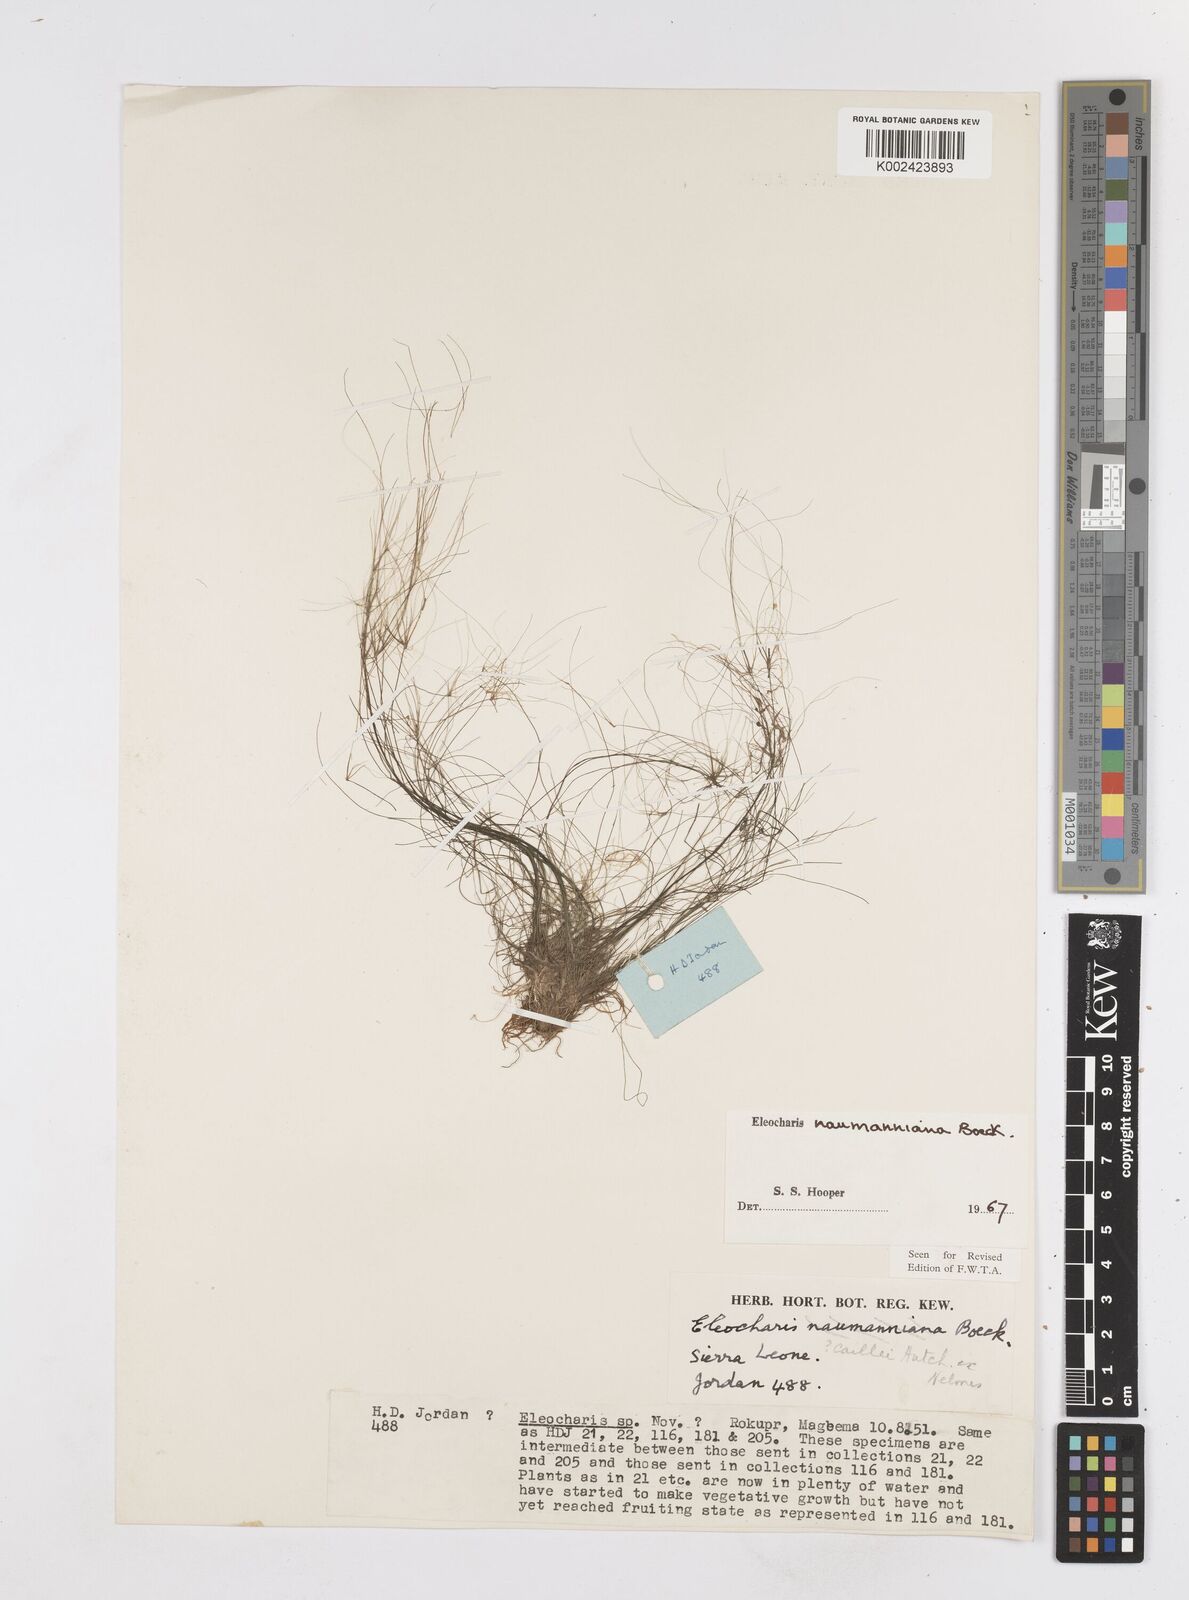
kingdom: Plantae
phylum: Tracheophyta
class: Liliopsida
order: Poales
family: Cyperaceae
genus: Eleocharis
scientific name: Eleocharis naumanniana
